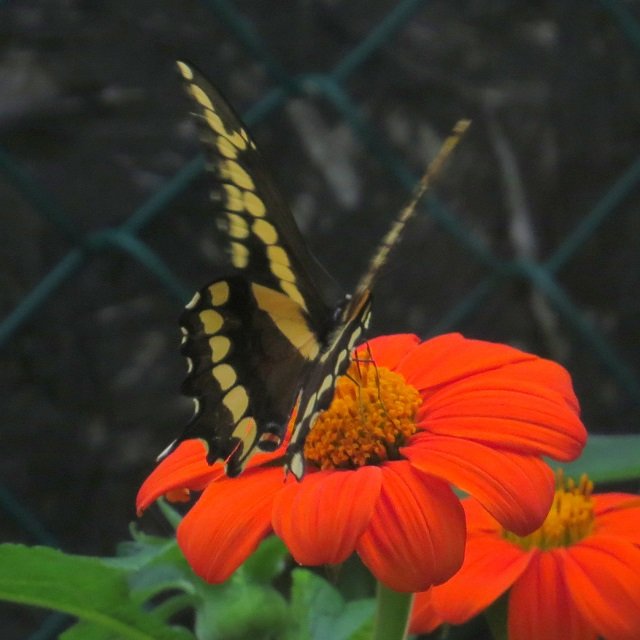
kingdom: Animalia
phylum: Arthropoda
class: Insecta
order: Lepidoptera
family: Papilionidae
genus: Papilio
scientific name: Papilio cresphontes
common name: Eastern Giant Swallowtail
